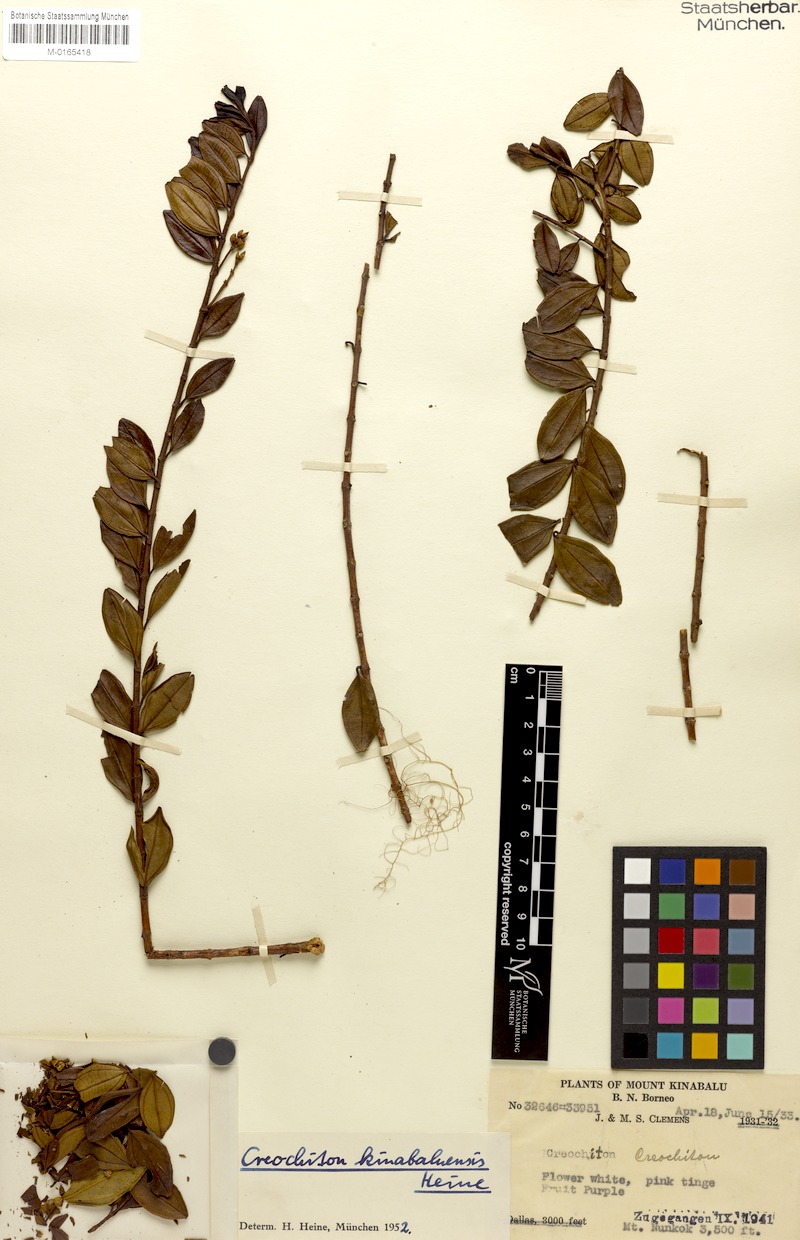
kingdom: Plantae
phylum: Tracheophyta
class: Magnoliopsida
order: Myrtales
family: Melastomataceae
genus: Creochiton
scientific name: Creochiton kinabaluense
